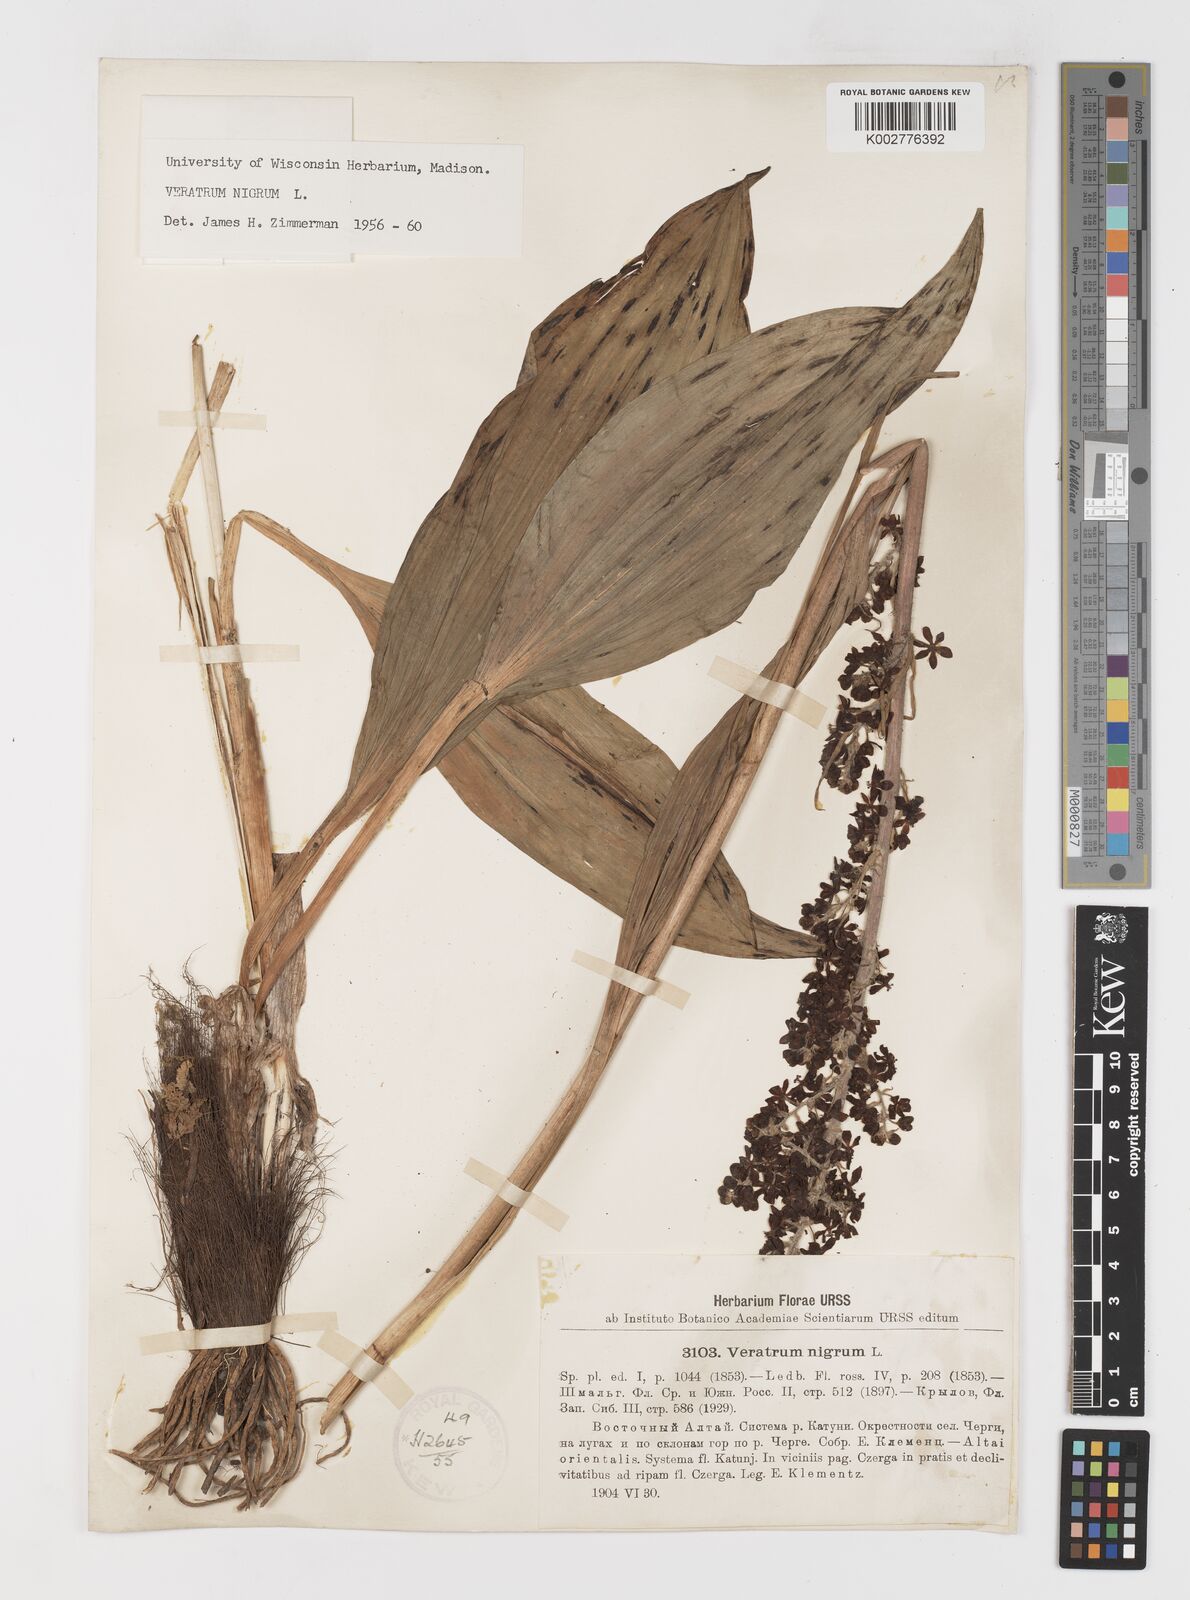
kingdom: Plantae
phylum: Tracheophyta
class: Liliopsida
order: Liliales
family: Melanthiaceae
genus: Veratrum
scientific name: Veratrum nigrum
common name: Black veratrum
